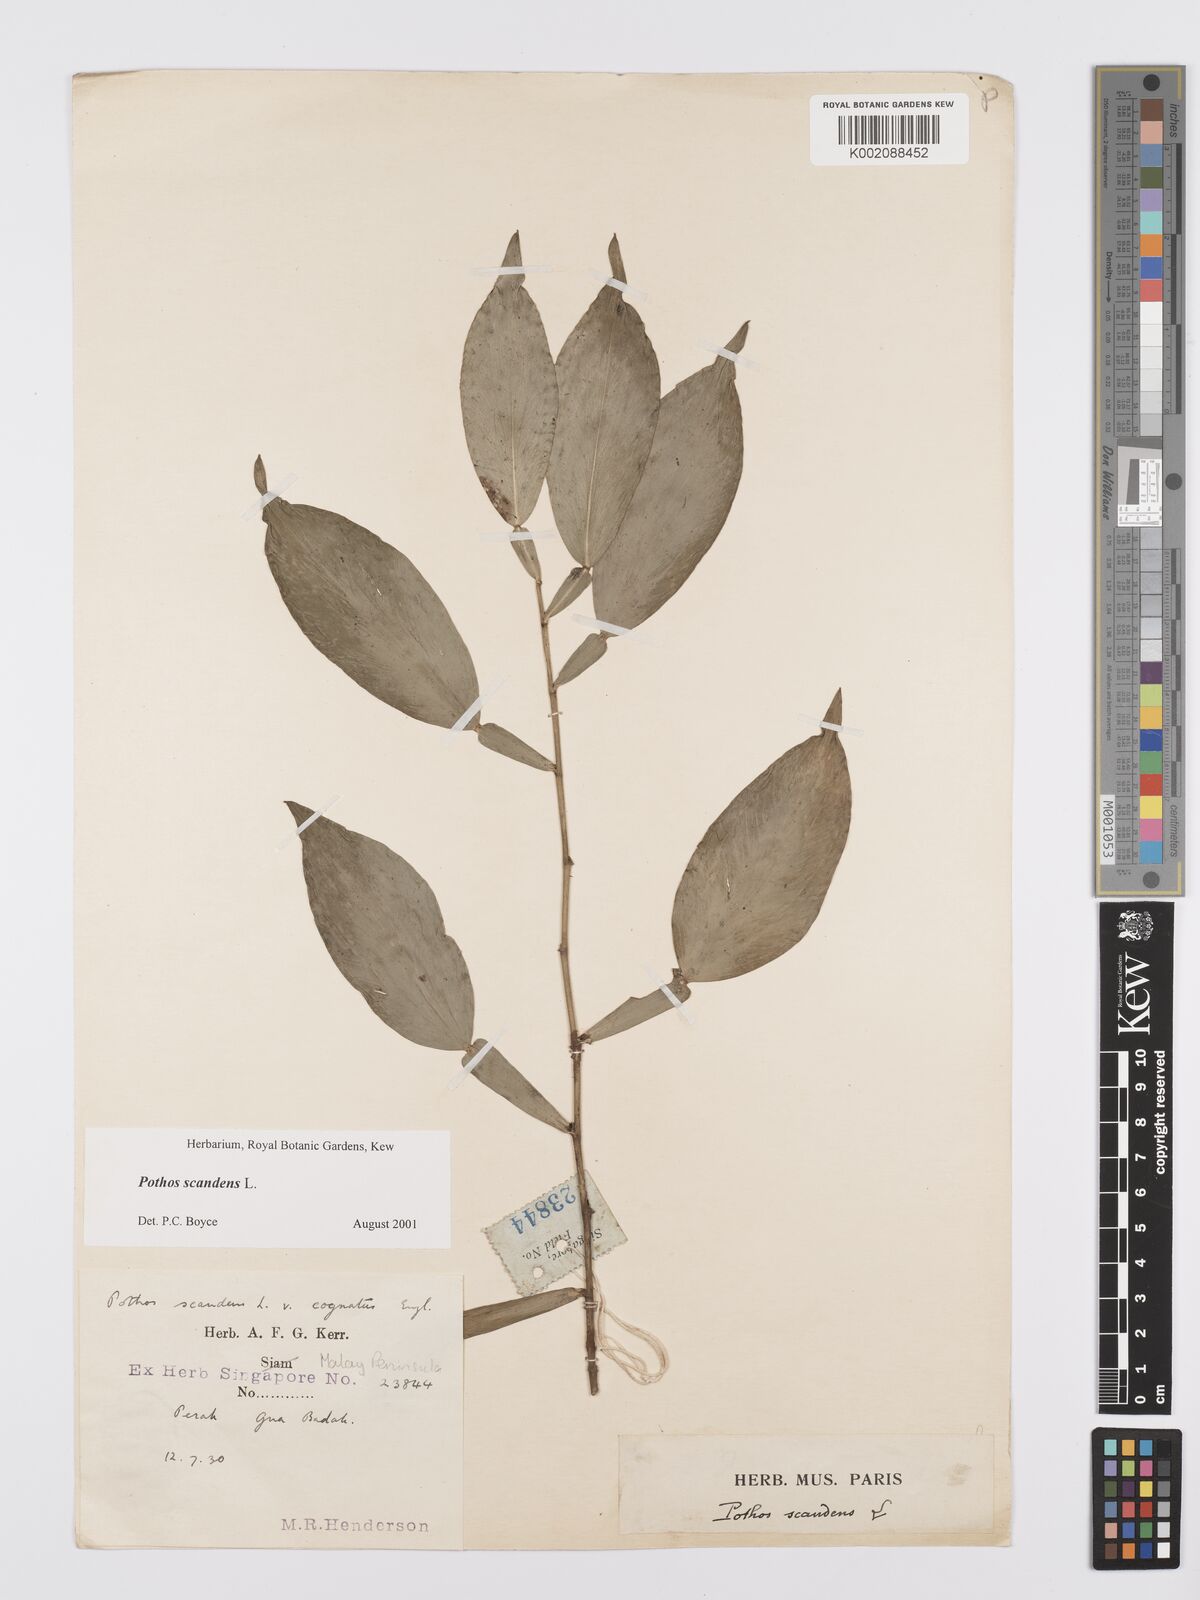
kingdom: Plantae
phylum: Tracheophyta
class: Liliopsida
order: Alismatales
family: Araceae
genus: Pothos
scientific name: Pothos scandens
